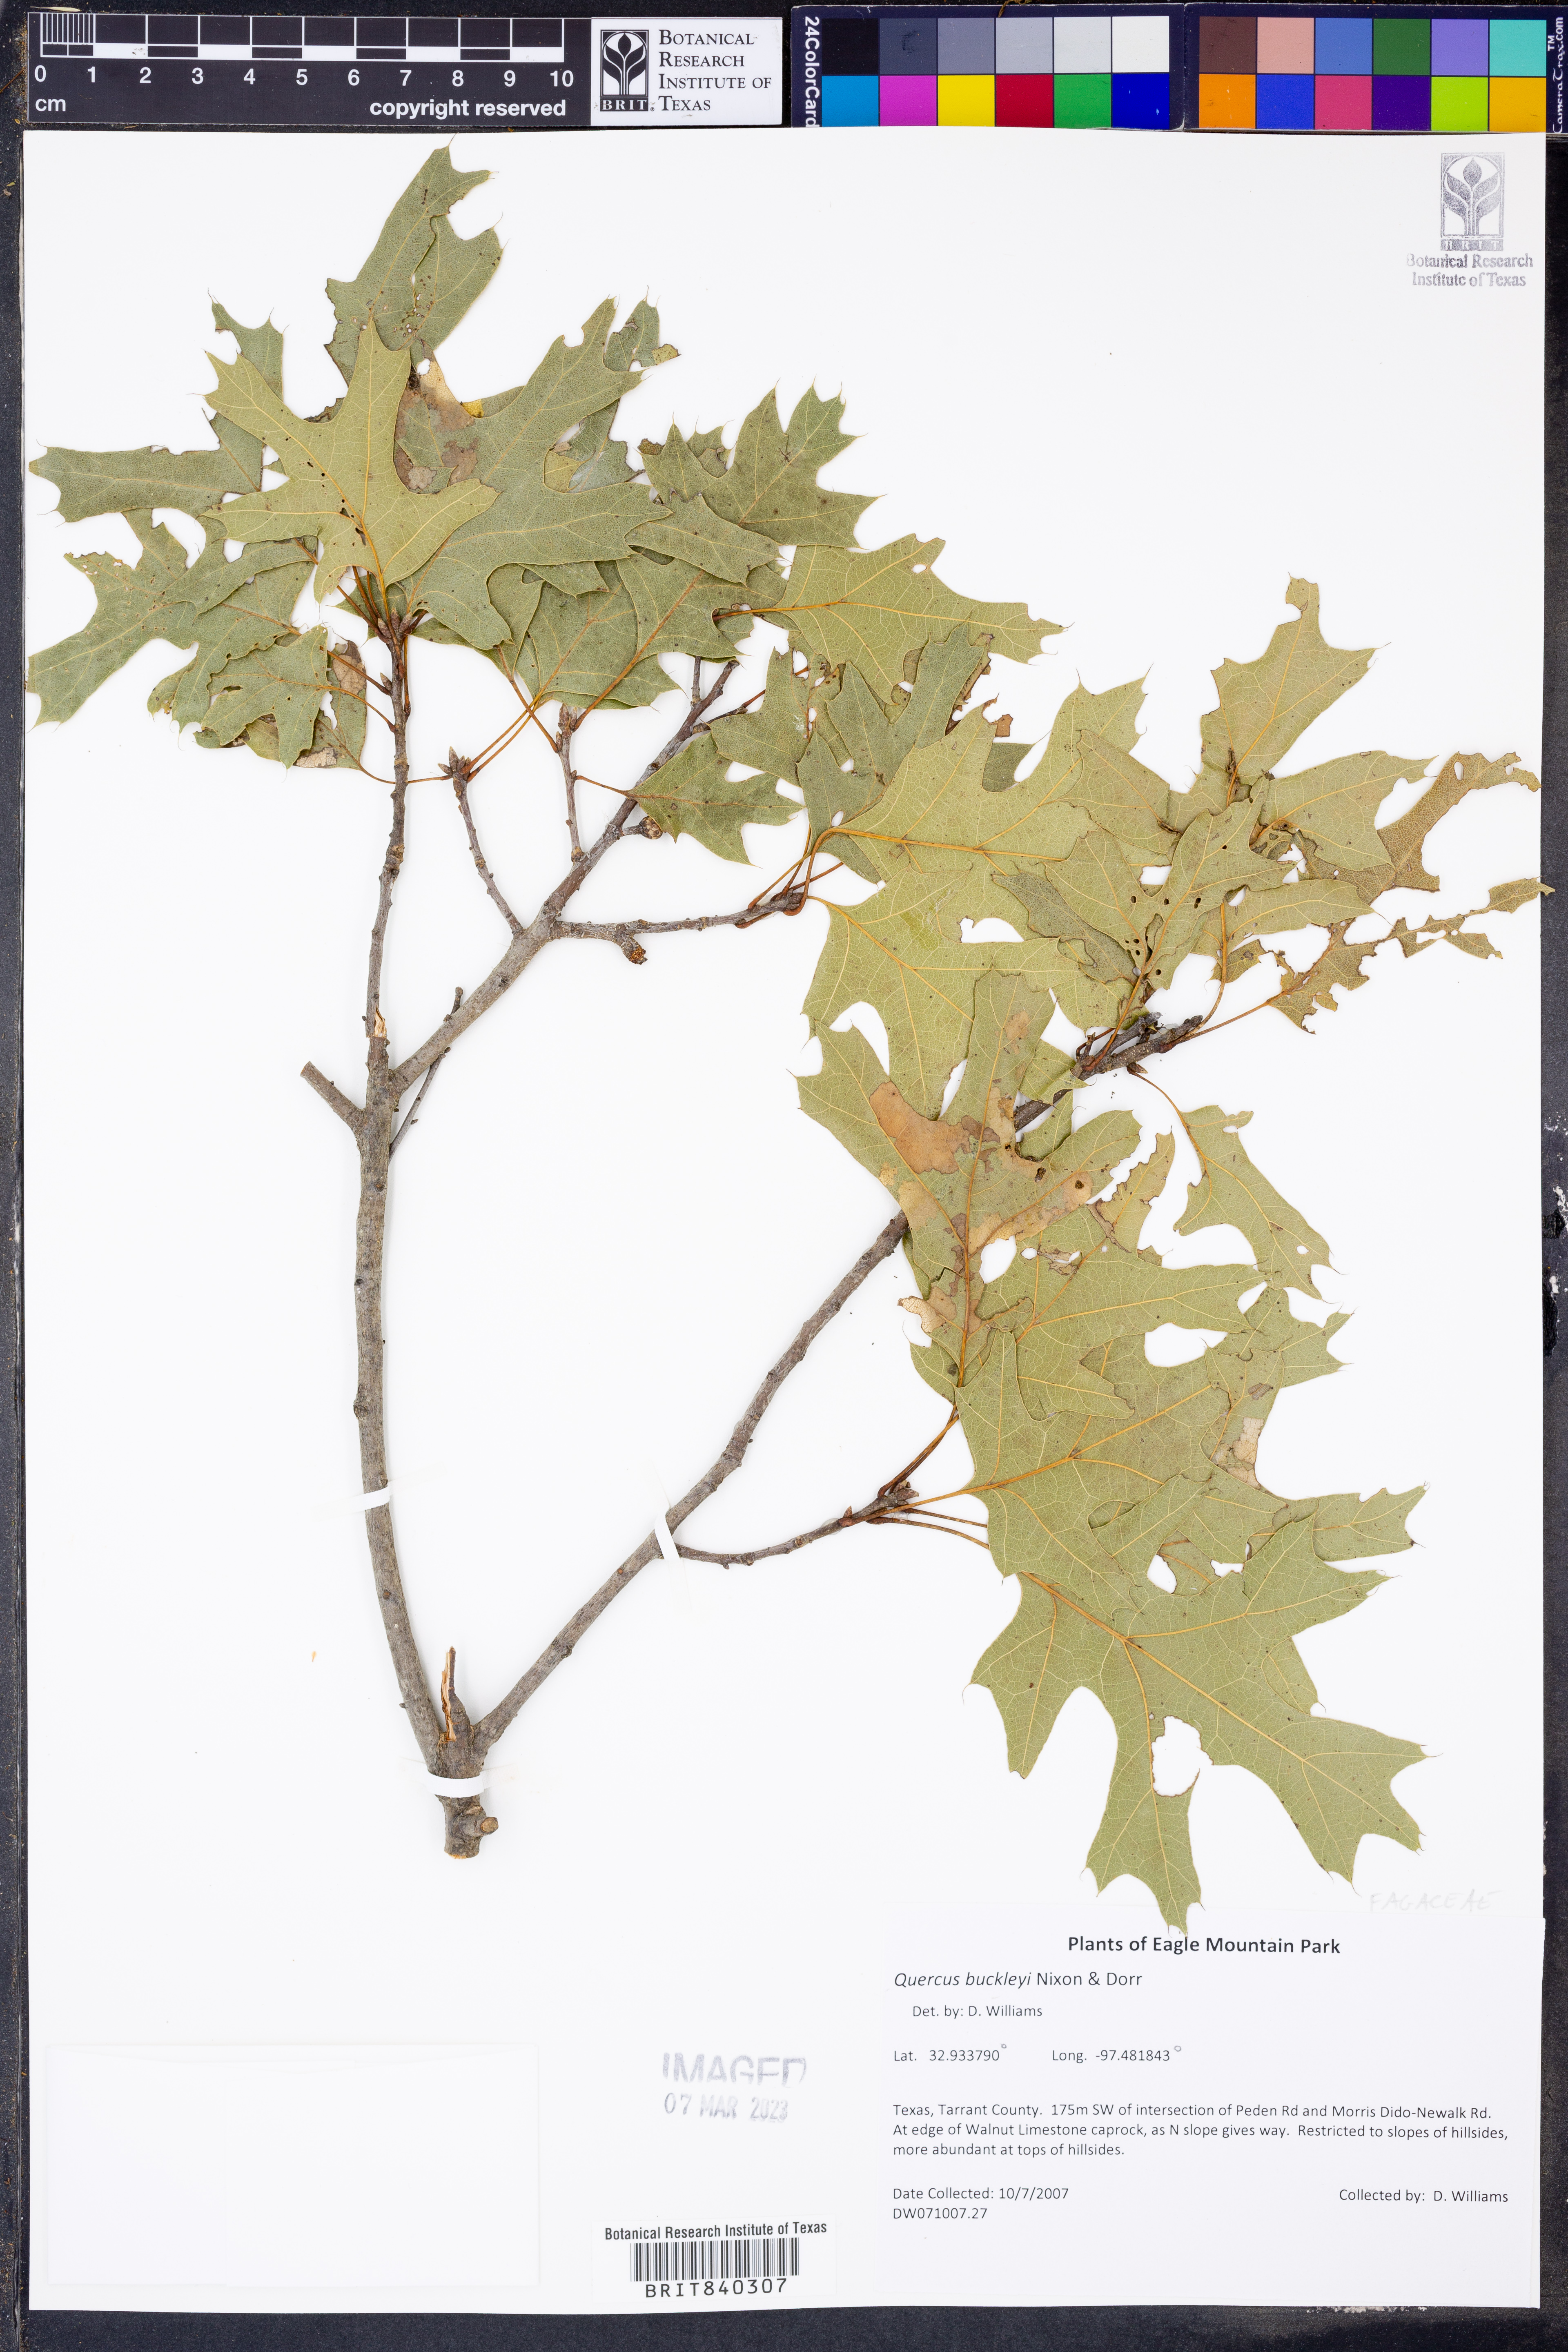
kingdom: Plantae
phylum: Tracheophyta
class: Magnoliopsida
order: Fagales
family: Fagaceae
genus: Quercus
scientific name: Quercus buckleyi
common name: Buckley oak
